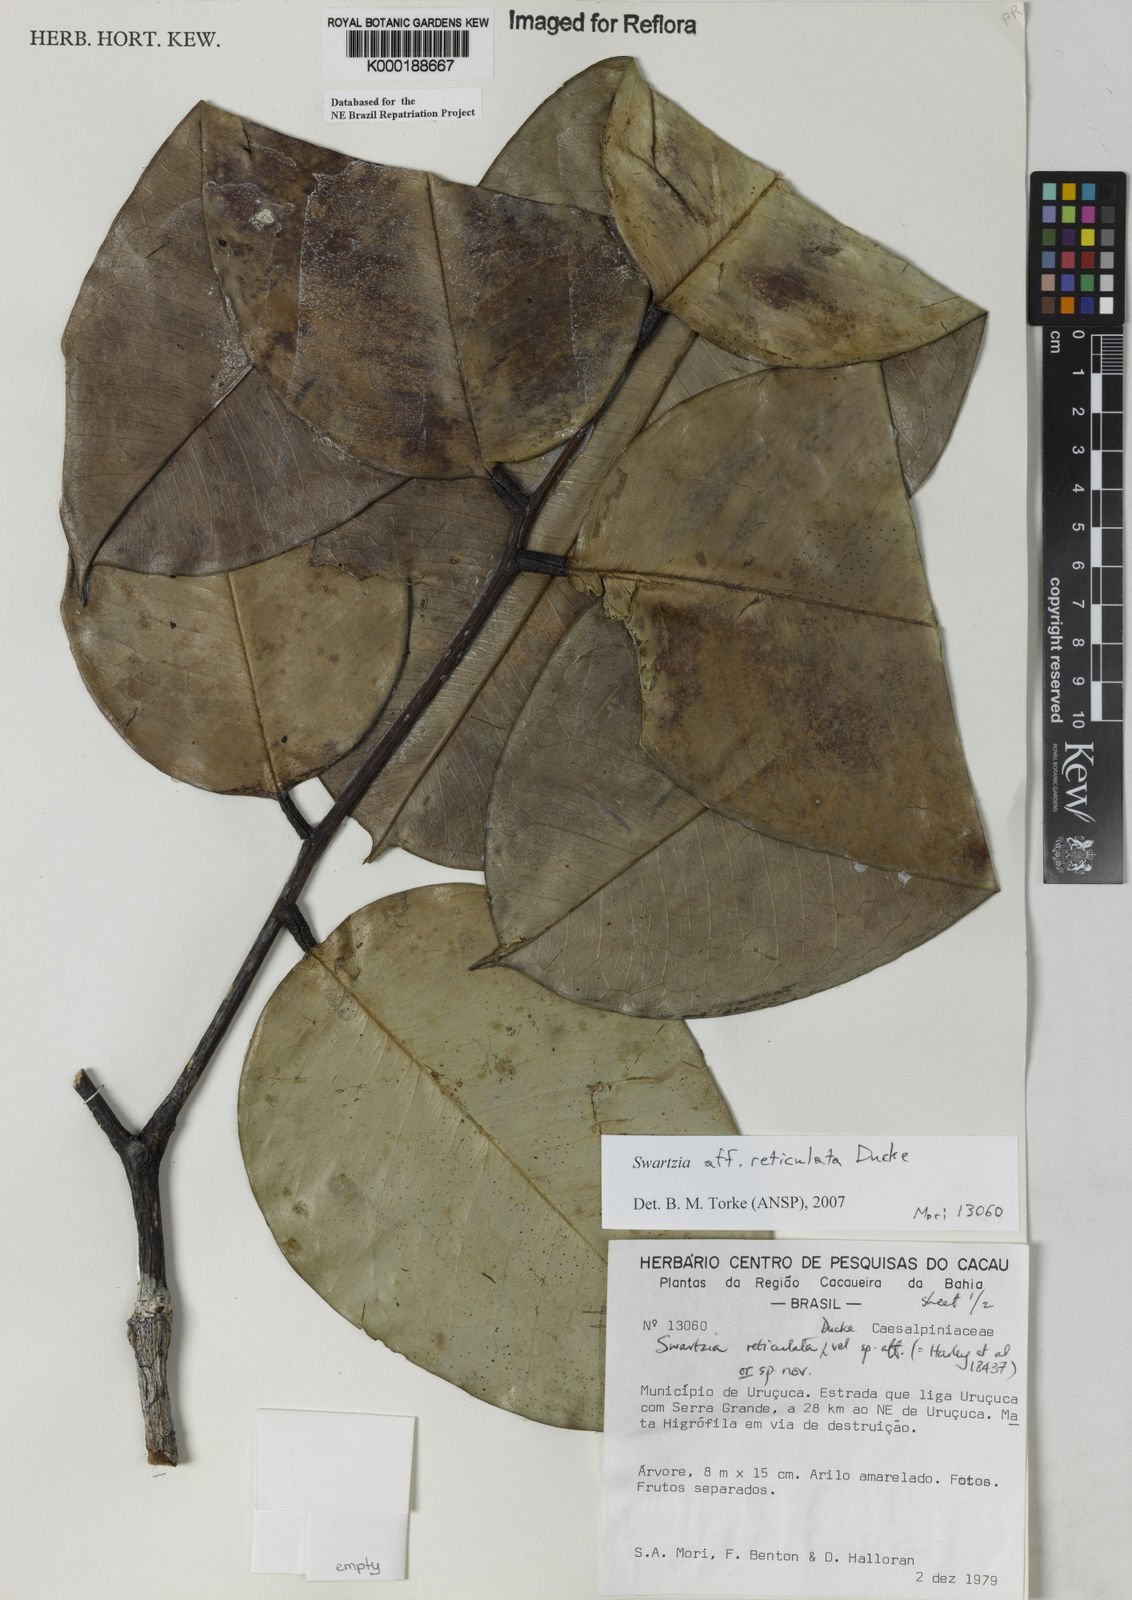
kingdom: Plantae
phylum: Tracheophyta
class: Magnoliopsida
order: Fabales
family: Fabaceae
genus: Swartzia
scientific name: Swartzia reticulata
